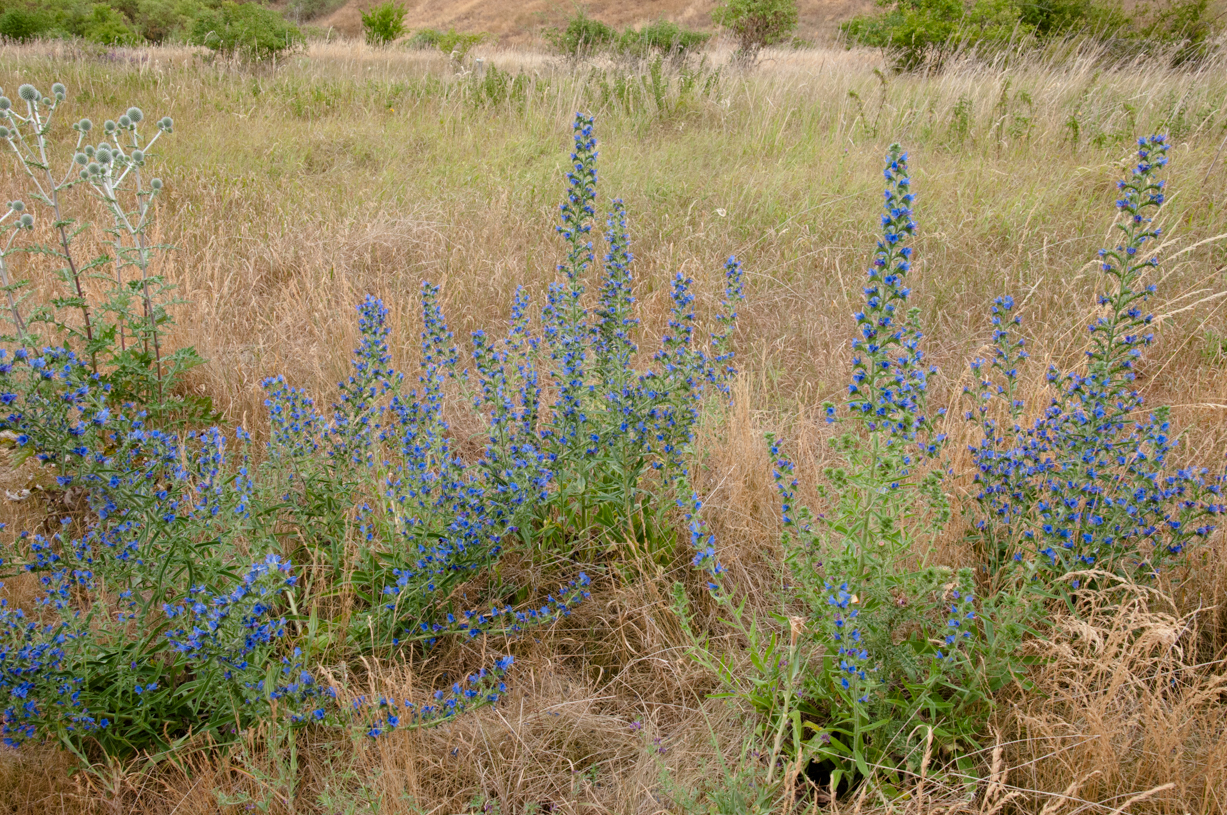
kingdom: Plantae
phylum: Tracheophyta
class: Magnoliopsida
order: Boraginales
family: Boraginaceae
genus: Echium
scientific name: Echium vulgare
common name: Common viper's bugloss
